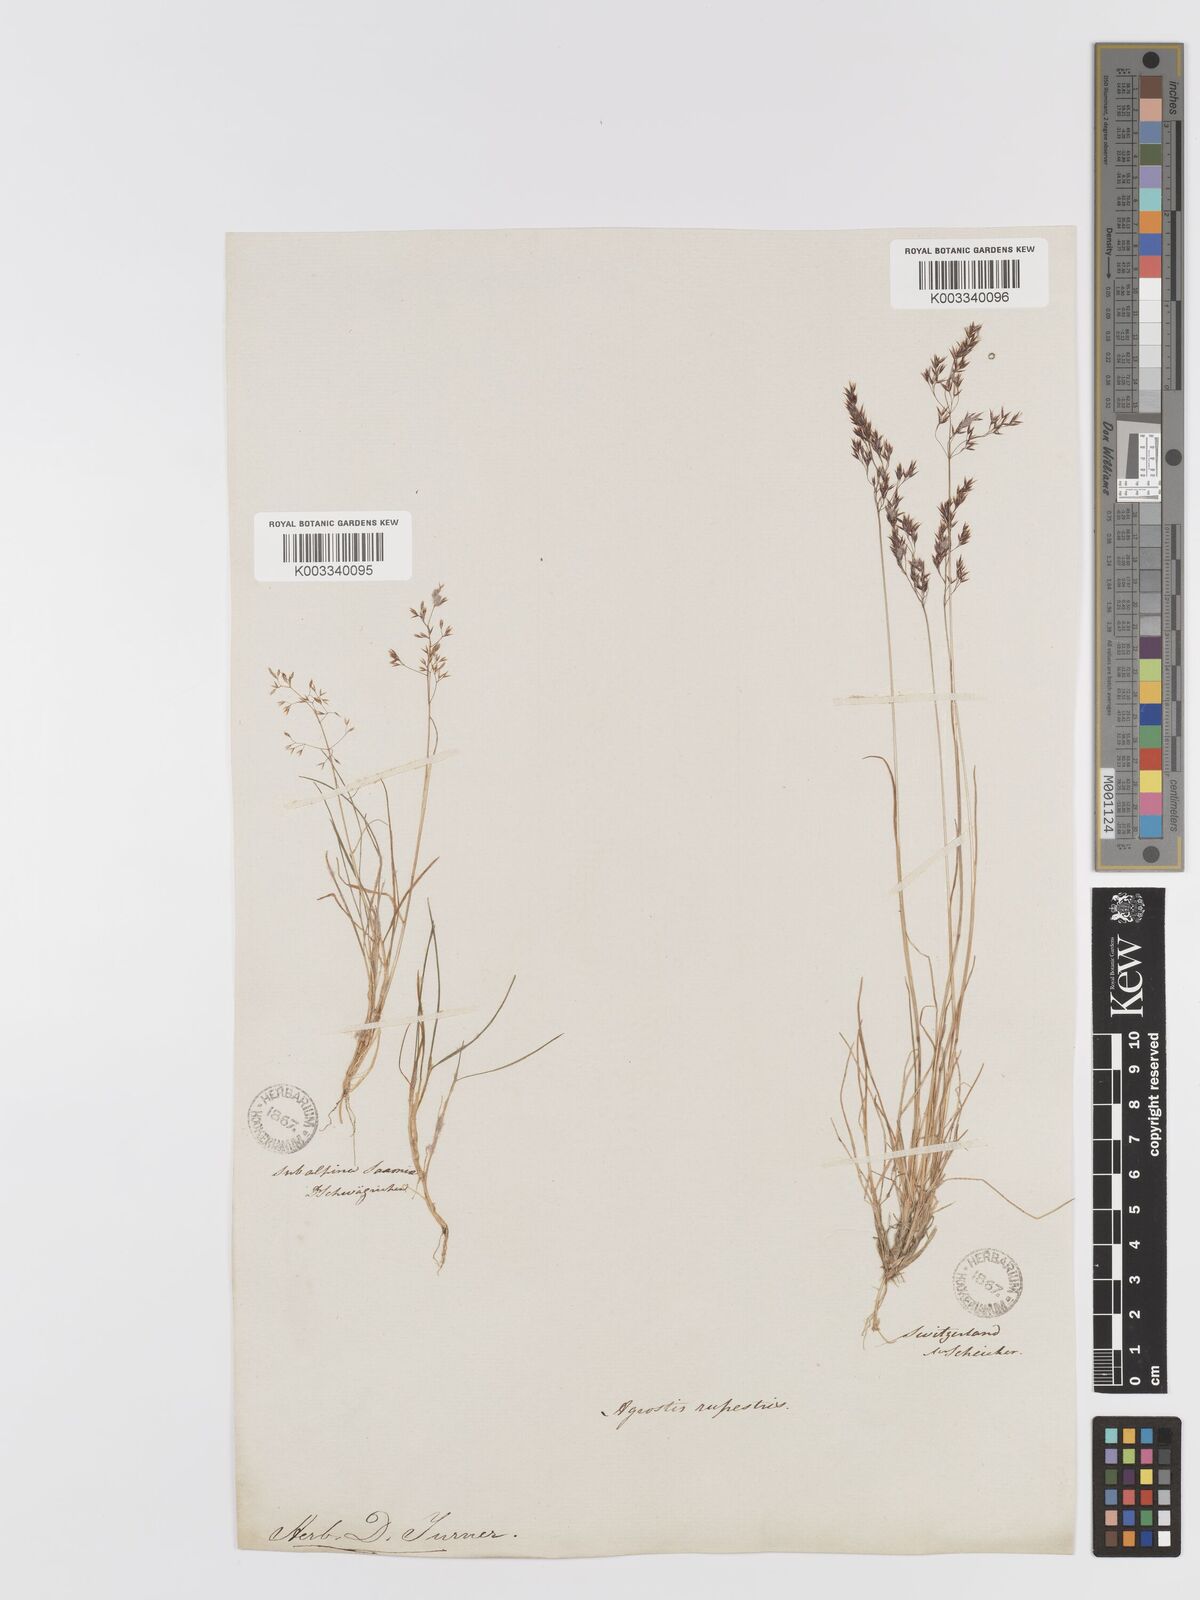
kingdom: Plantae
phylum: Tracheophyta
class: Liliopsida
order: Poales
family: Poaceae
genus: Agrostis
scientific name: Agrostis rupestris
